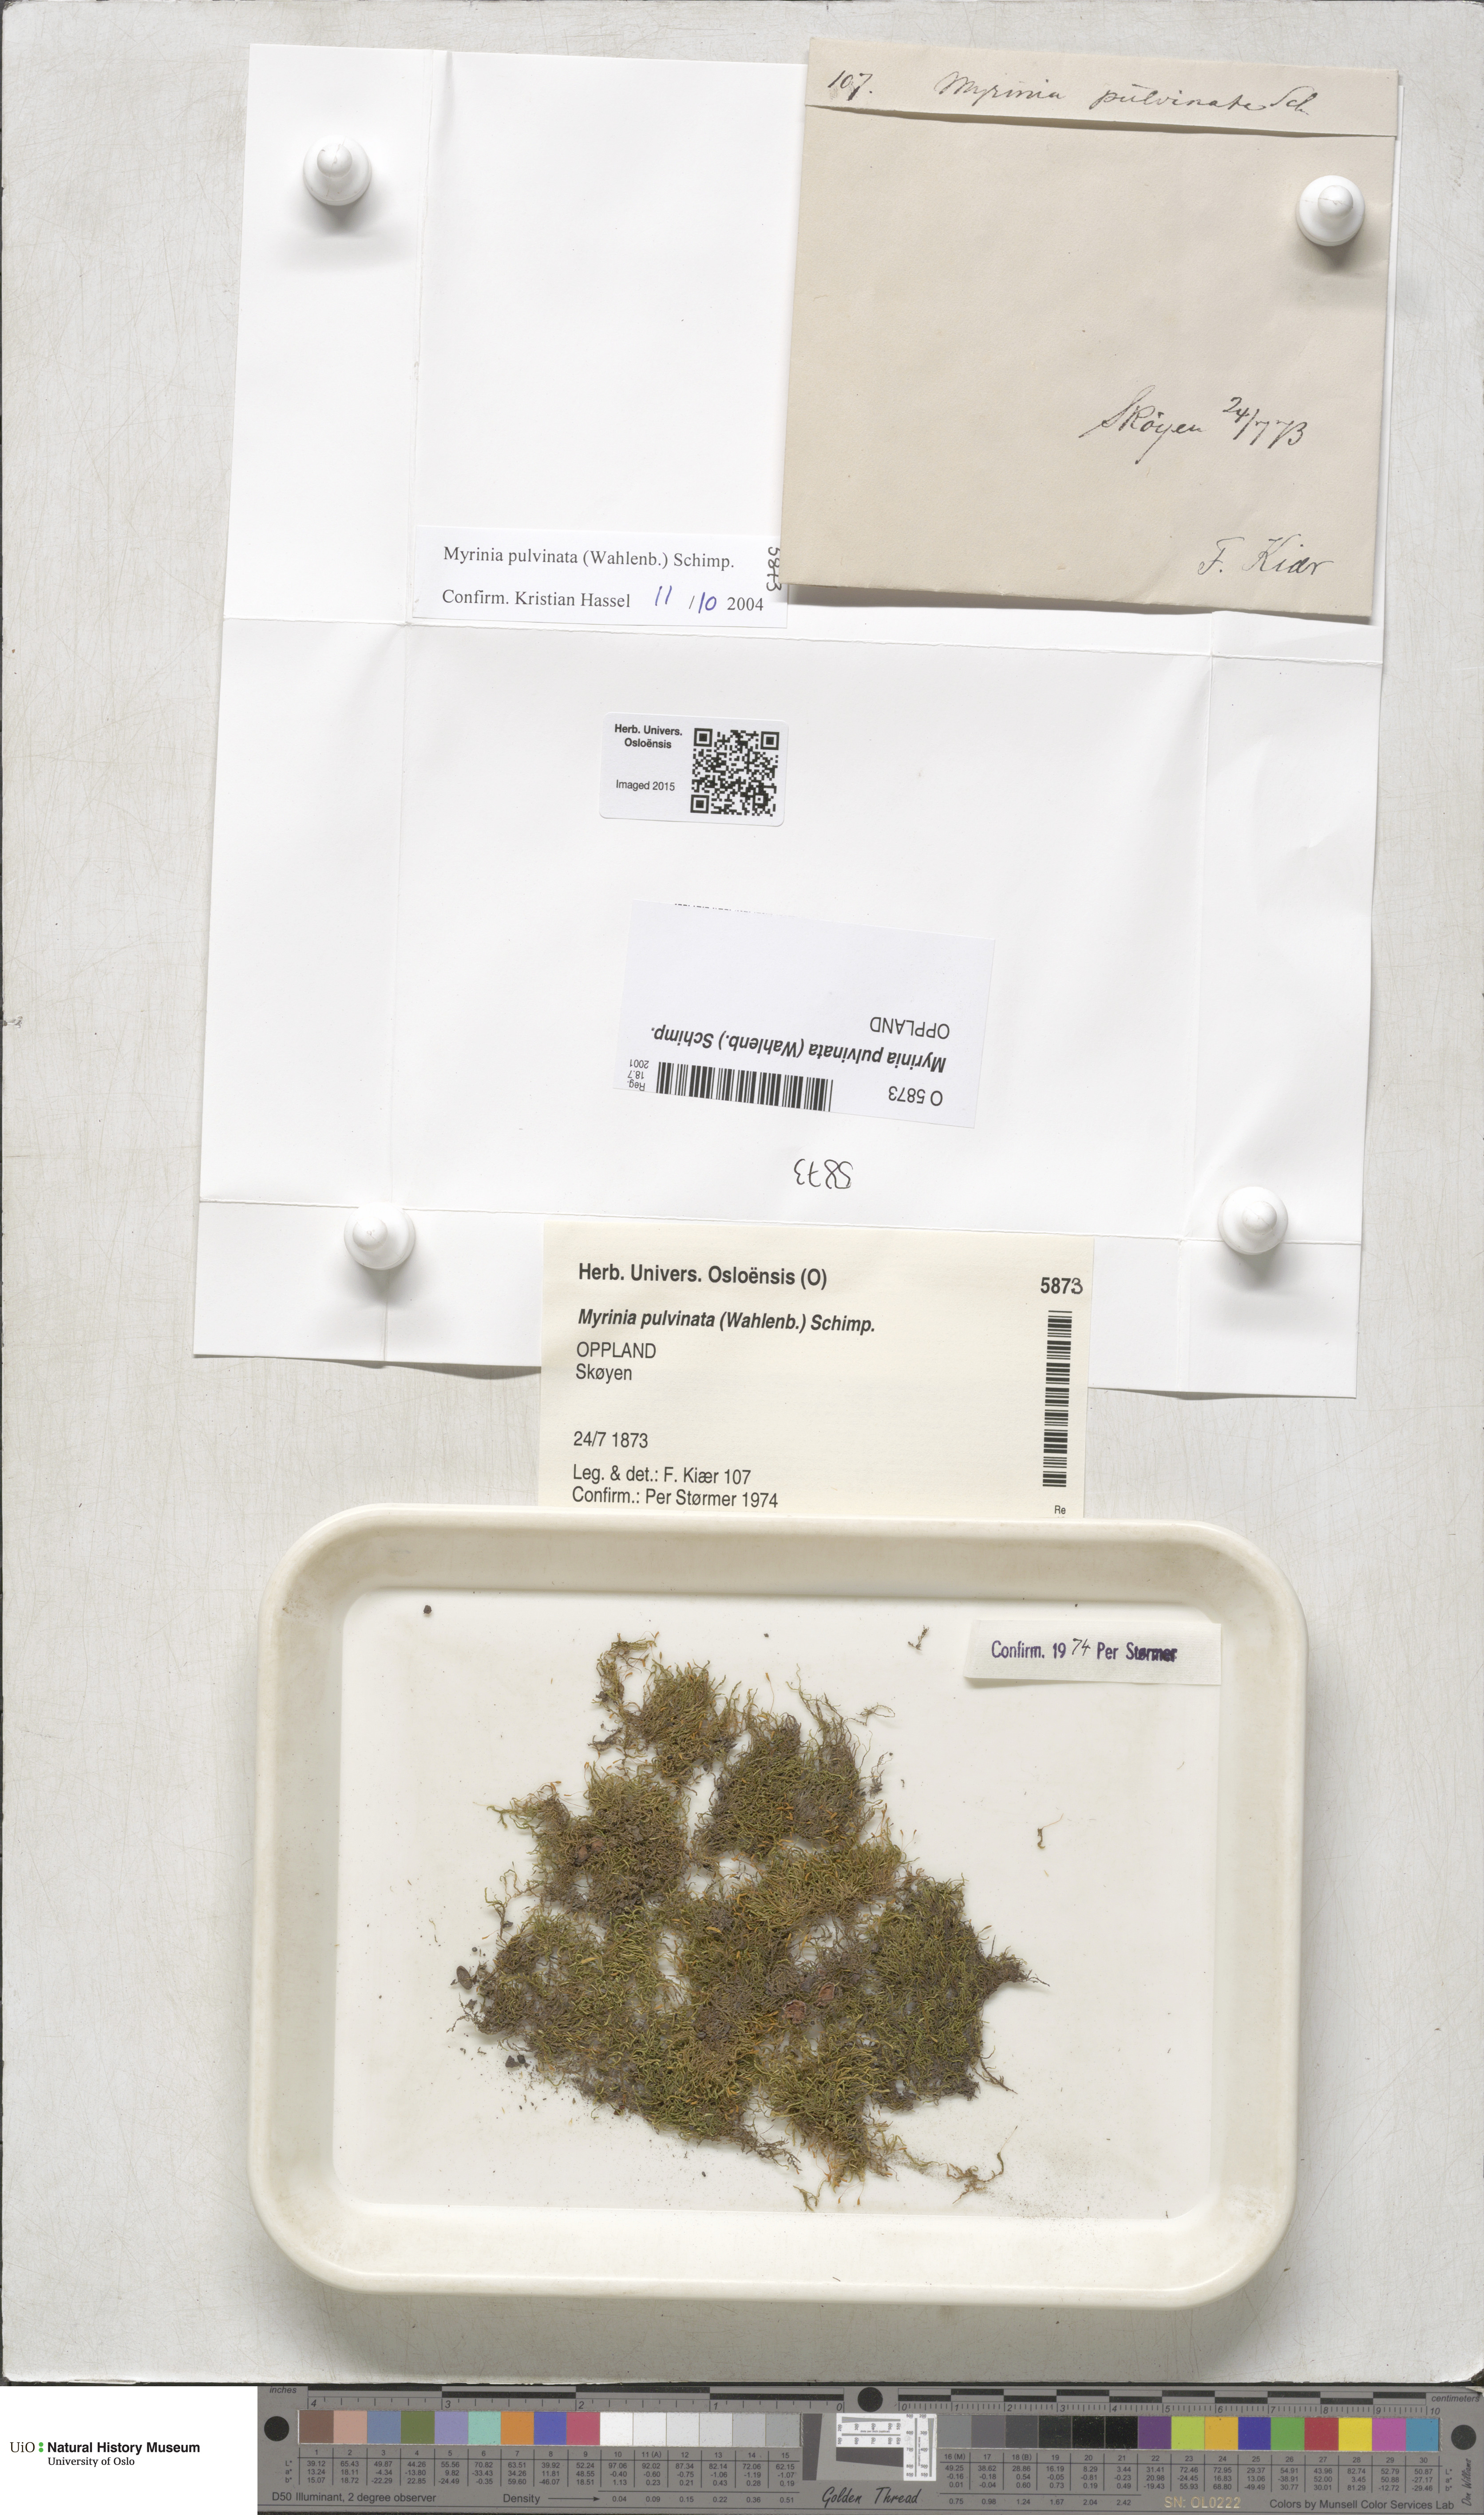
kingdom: Plantae
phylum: Bryophyta
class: Bryopsida
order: Hypnales
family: Myriniaceae
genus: Myrinia
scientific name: Myrinia pulvinata
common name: Flood-moss
